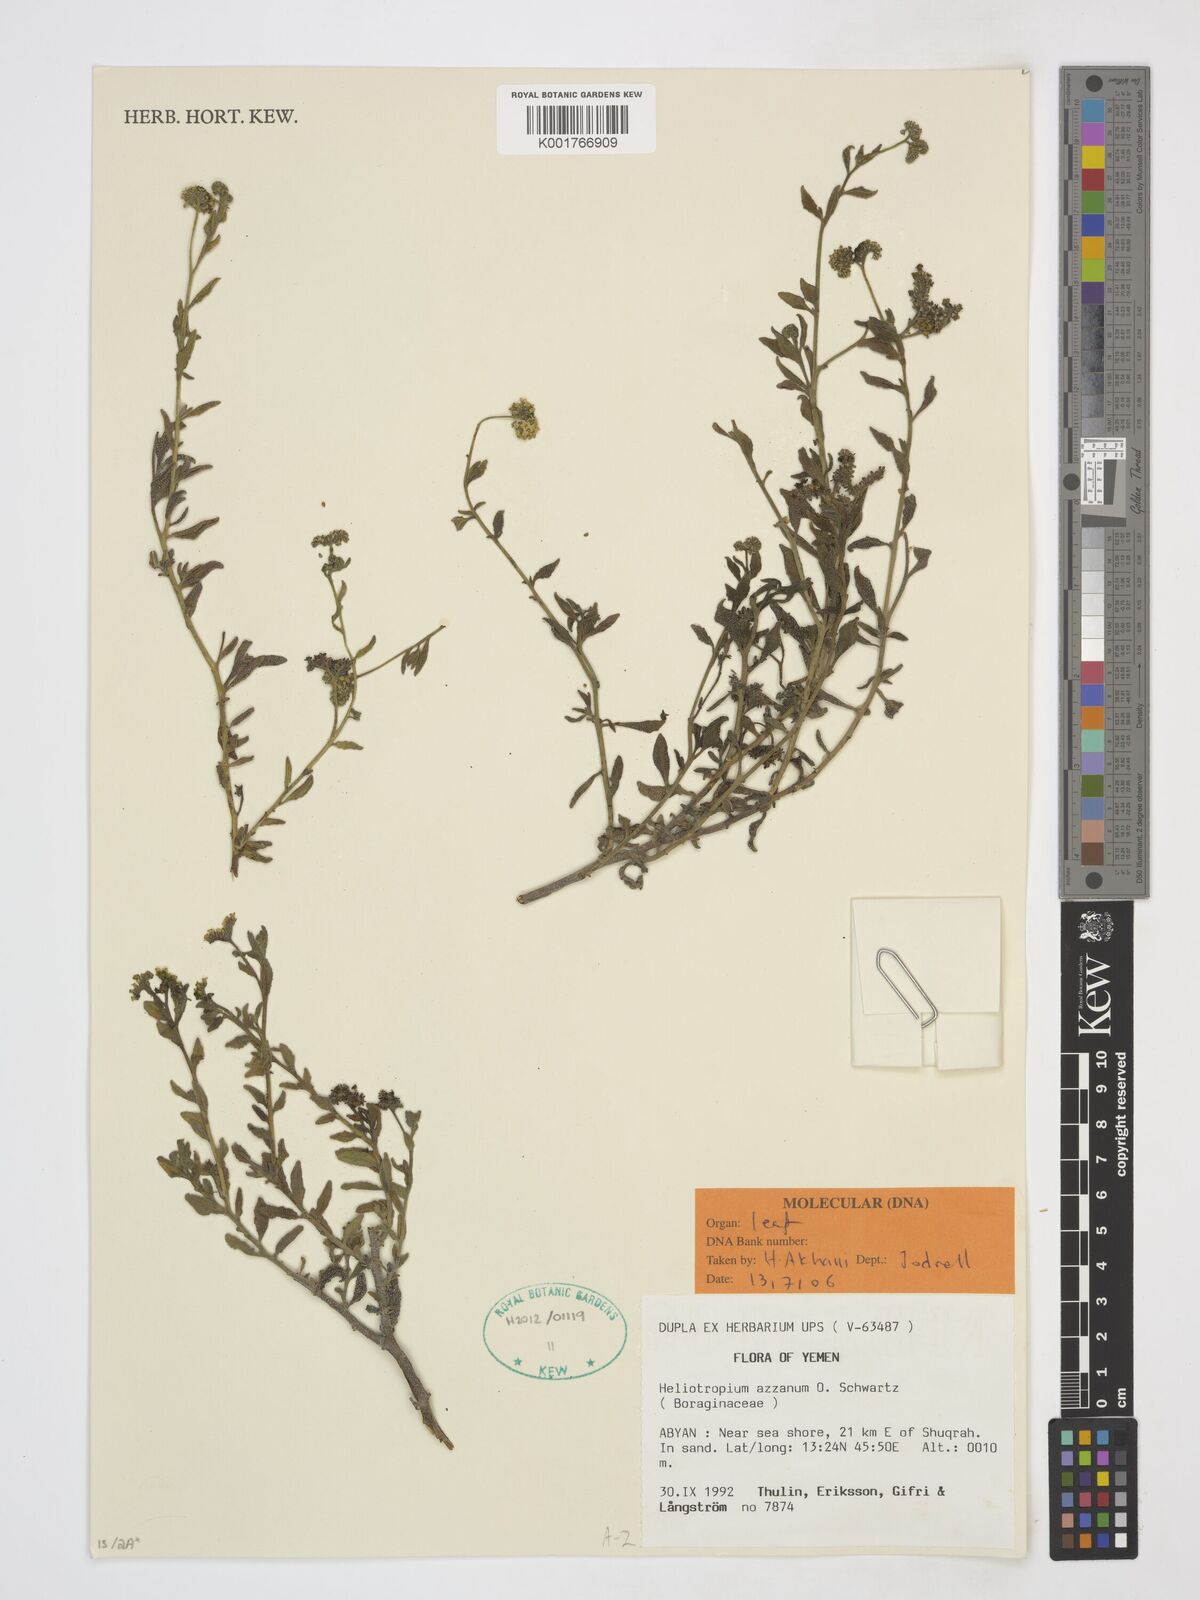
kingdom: Plantae
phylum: Tracheophyta
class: Magnoliopsida
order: Boraginales
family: Heliotropiaceae
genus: Heliotropium
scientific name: Heliotropium azzanum
